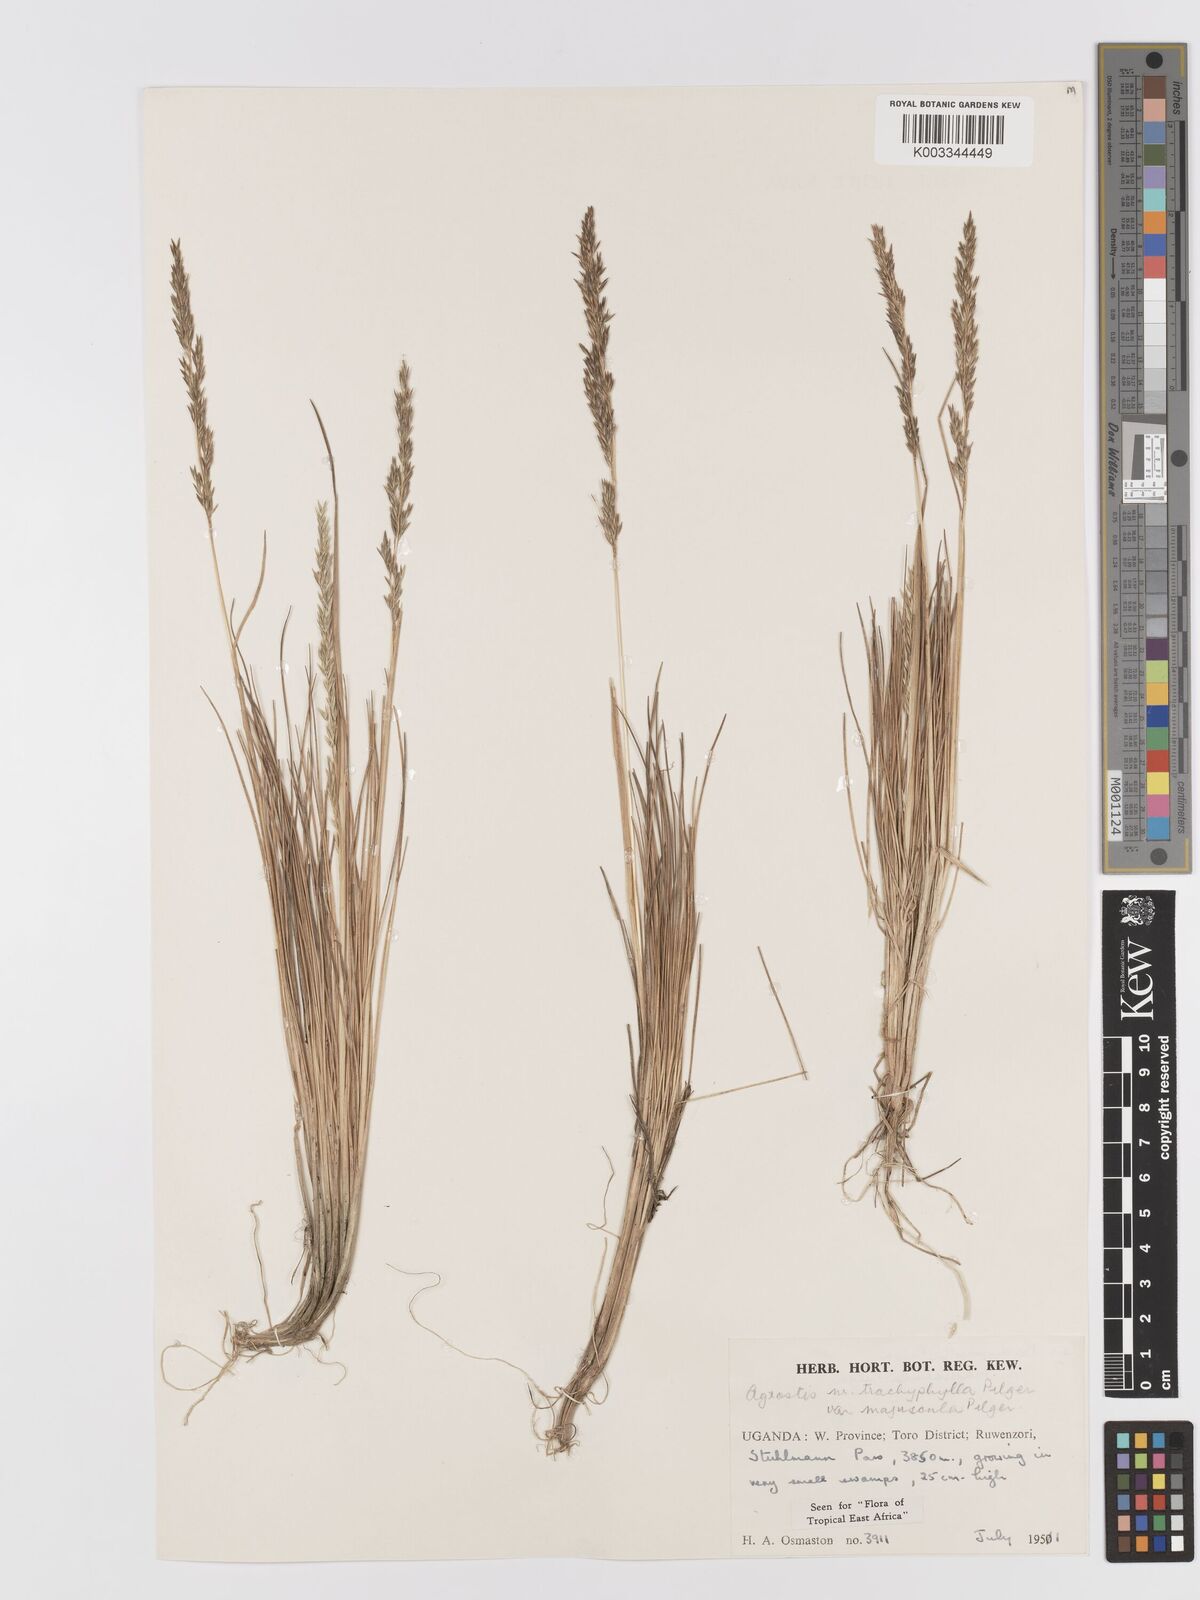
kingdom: Plantae
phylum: Tracheophyta
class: Liliopsida
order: Poales
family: Poaceae
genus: Agrostis
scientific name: Agrostis trachyphylla
